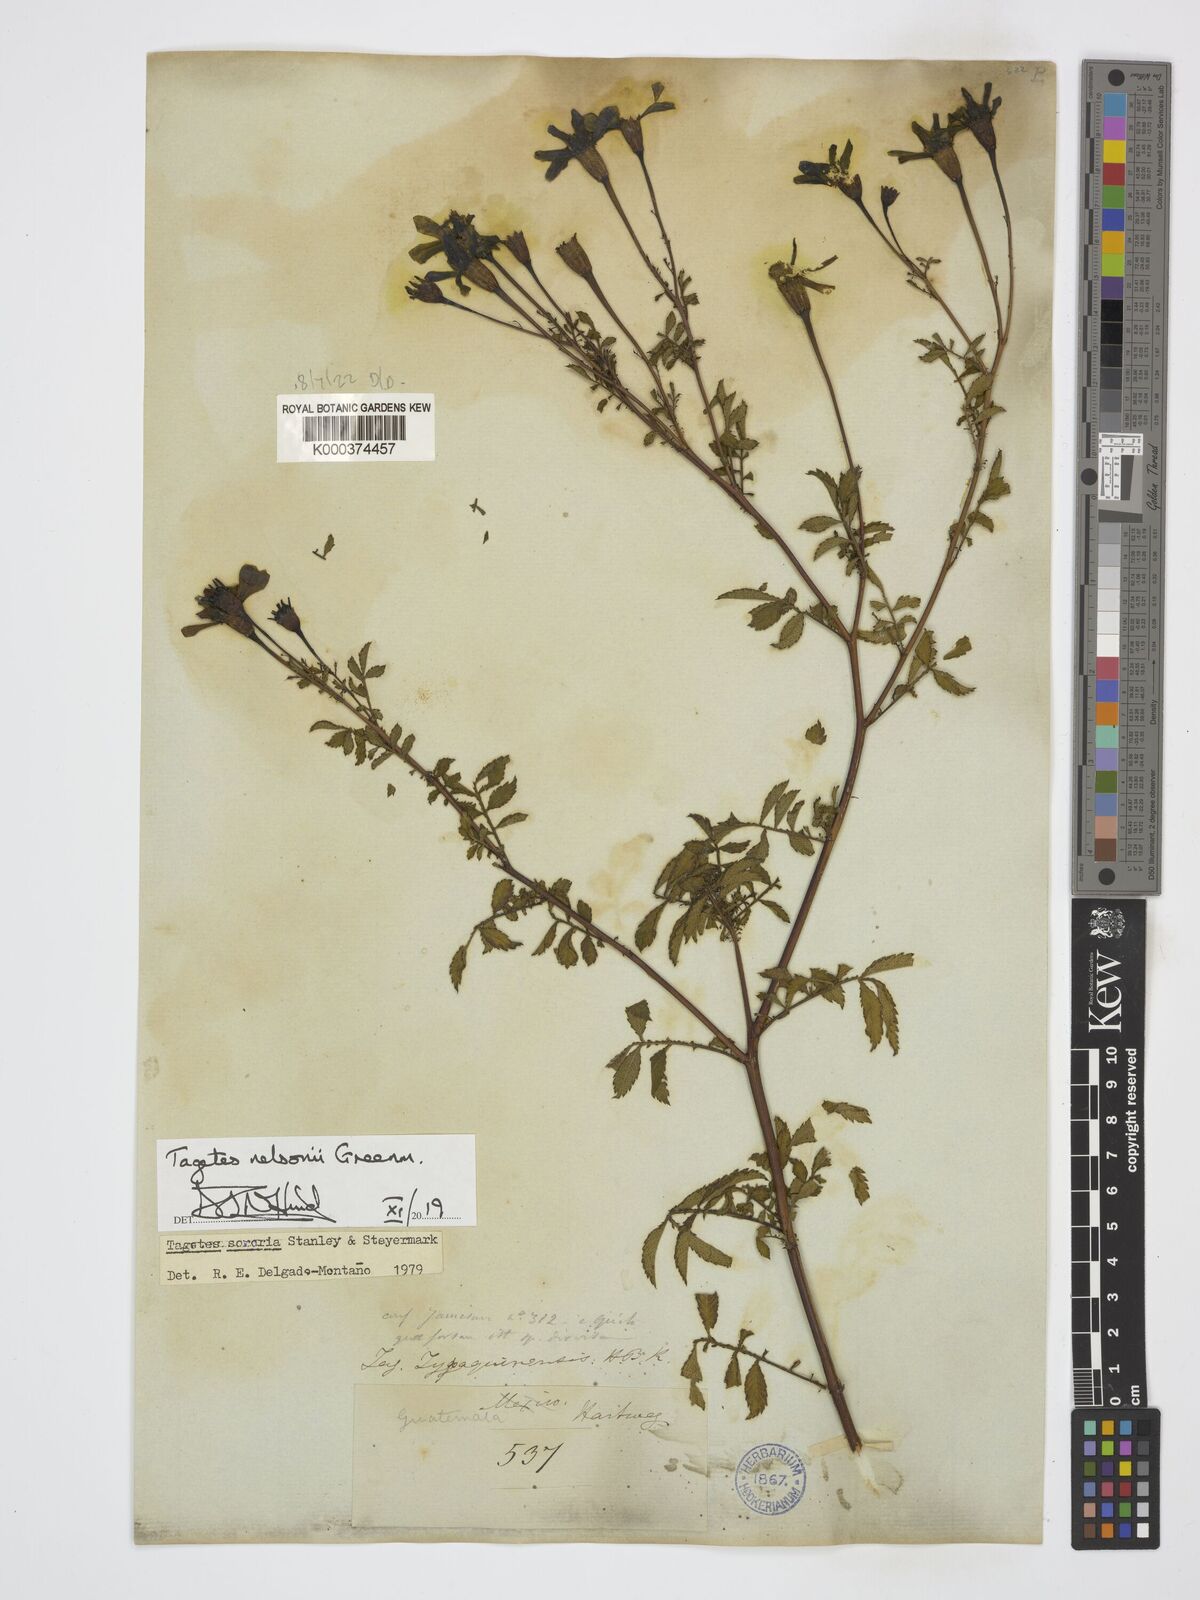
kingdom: Plantae
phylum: Tracheophyta
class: Magnoliopsida
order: Asterales
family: Asteraceae
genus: Tagetes
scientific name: Tagetes nelsonii
